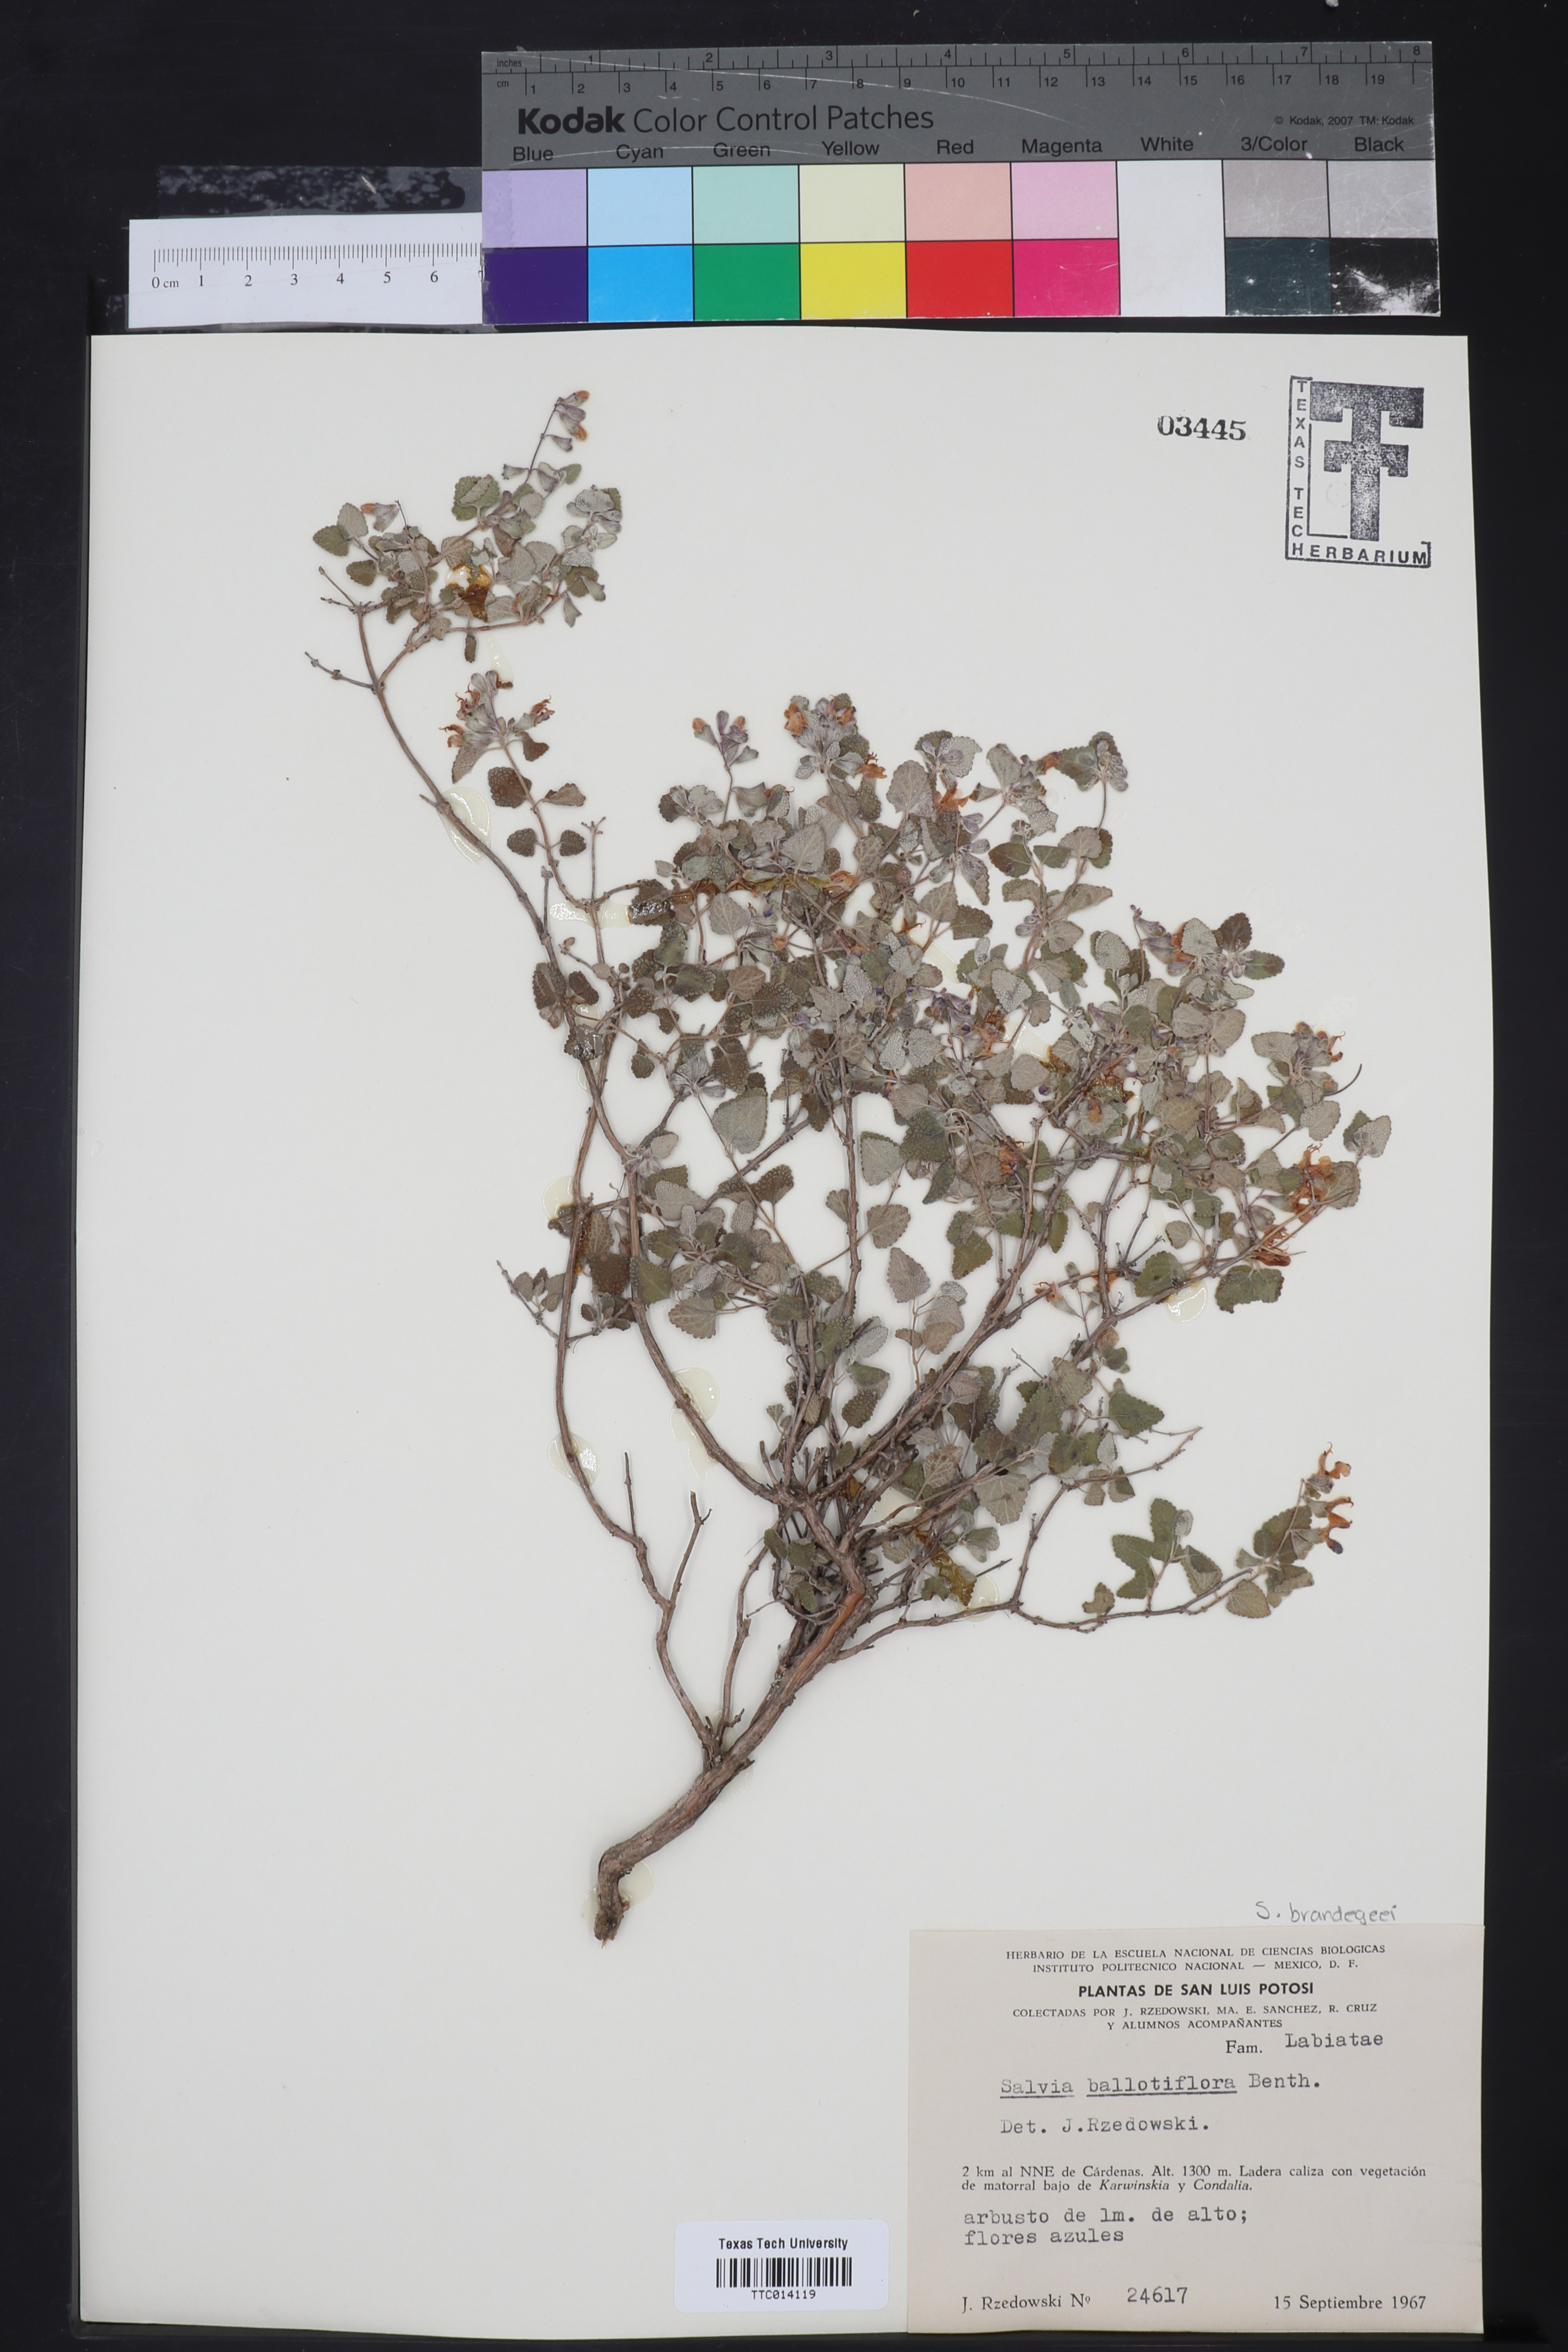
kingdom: Plantae
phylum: Tracheophyta
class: Magnoliopsida
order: Lamiales
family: Lamiaceae
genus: Salvia
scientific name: Salvia ballotiflora
